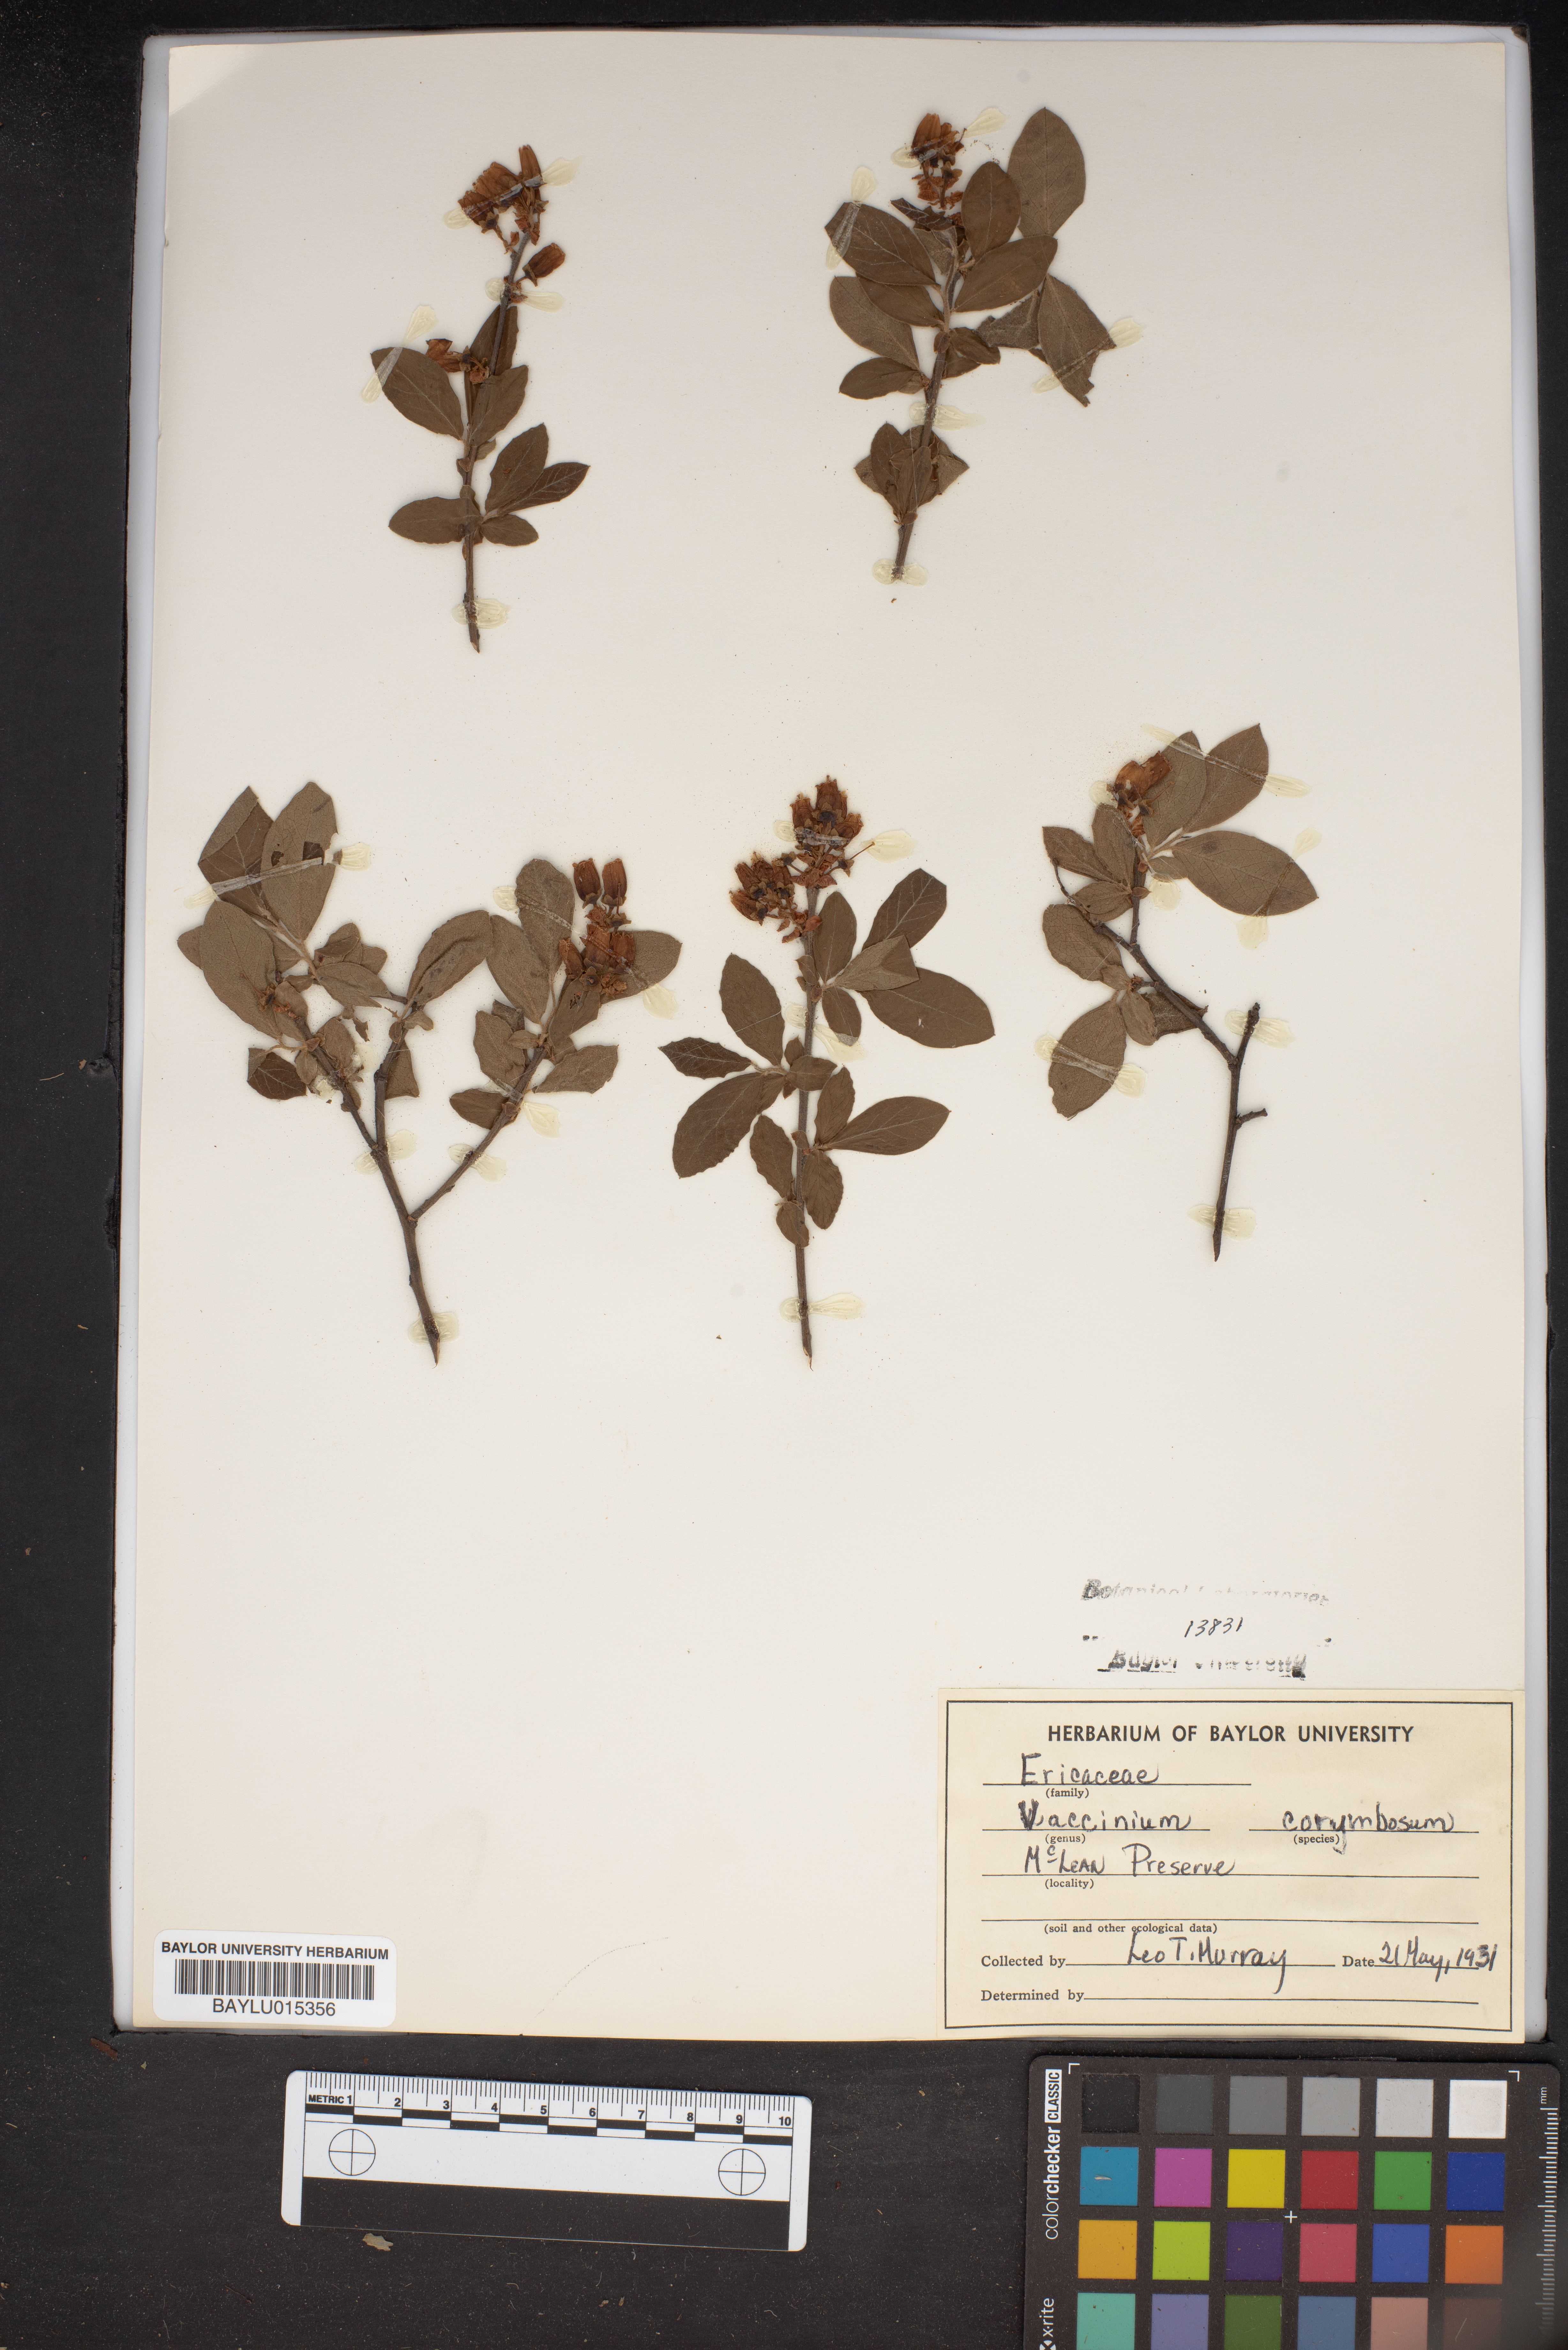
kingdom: Plantae
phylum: Tracheophyta
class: Magnoliopsida
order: Ericales
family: Ericaceae
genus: Vaccinium
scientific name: Vaccinium corymbosum
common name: Blueberry
